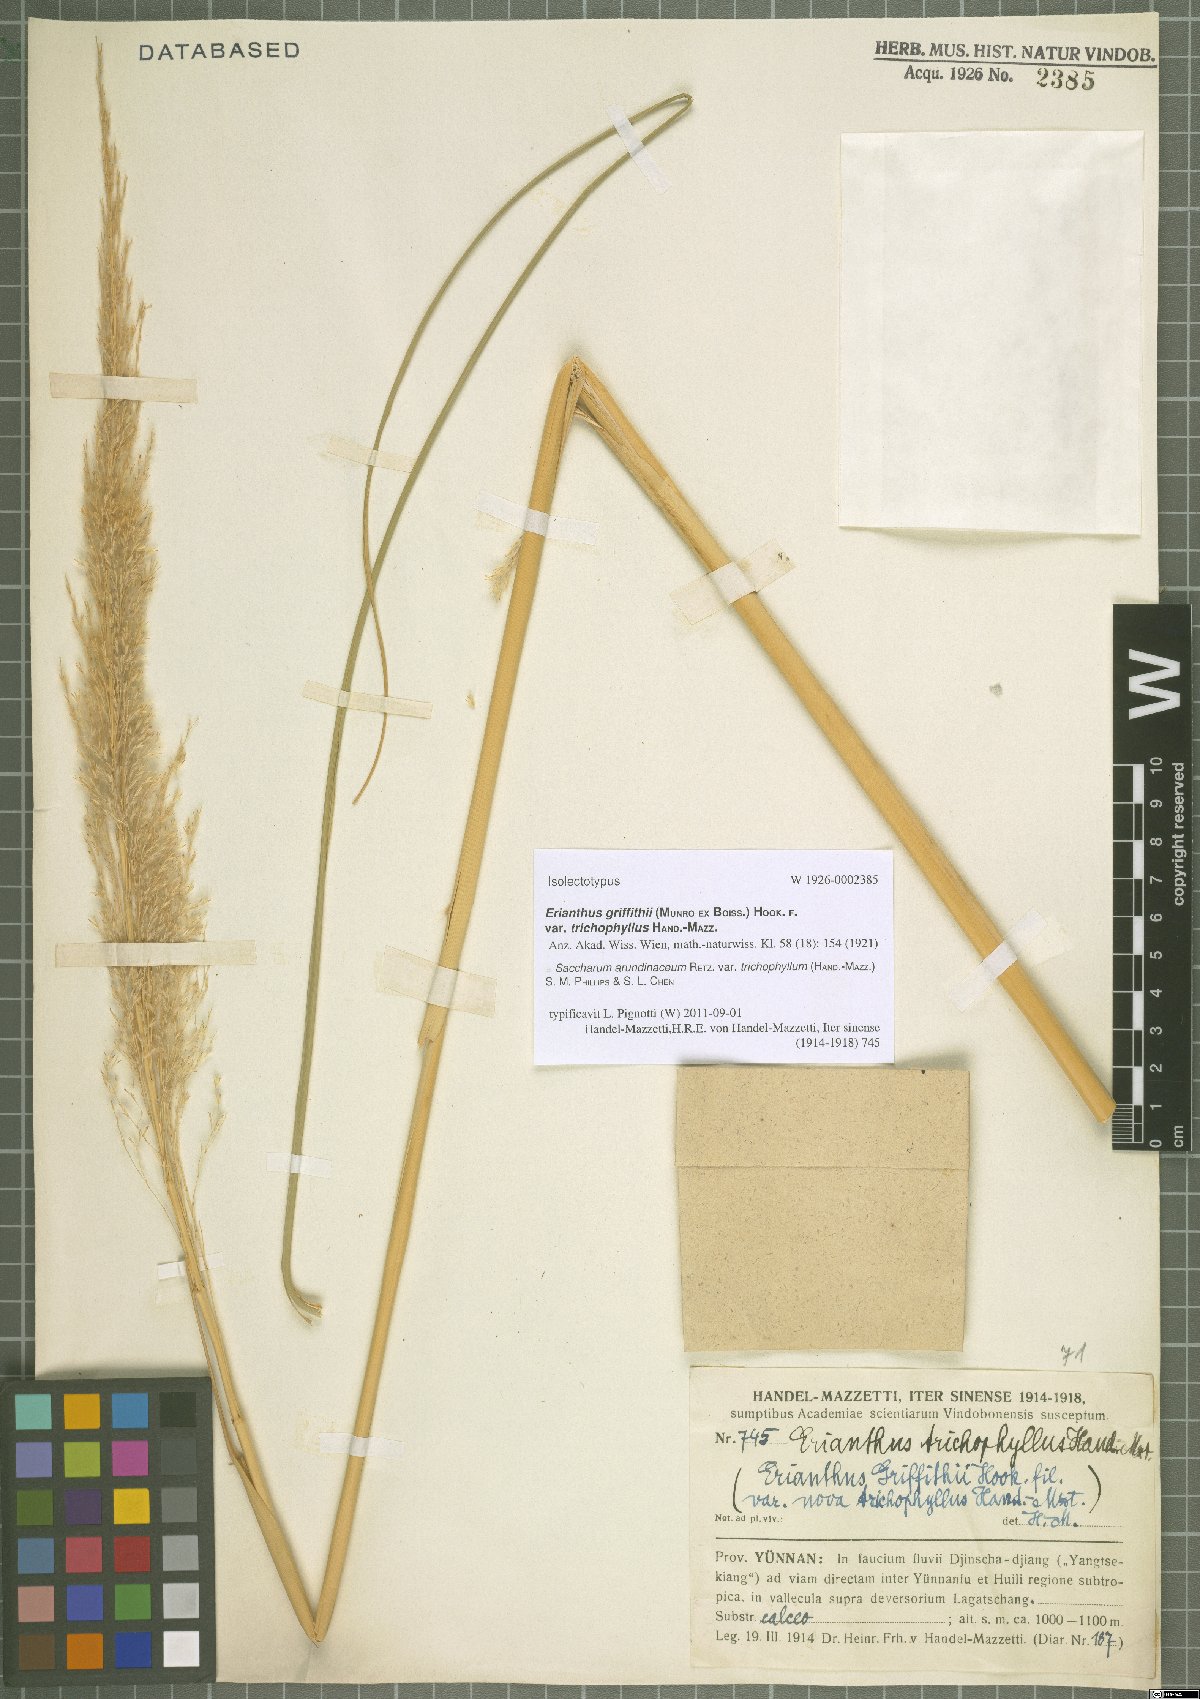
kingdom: Plantae
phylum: Tracheophyta
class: Liliopsida
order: Poales
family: Poaceae
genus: Tripidium
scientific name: Tripidium arundinaceum
